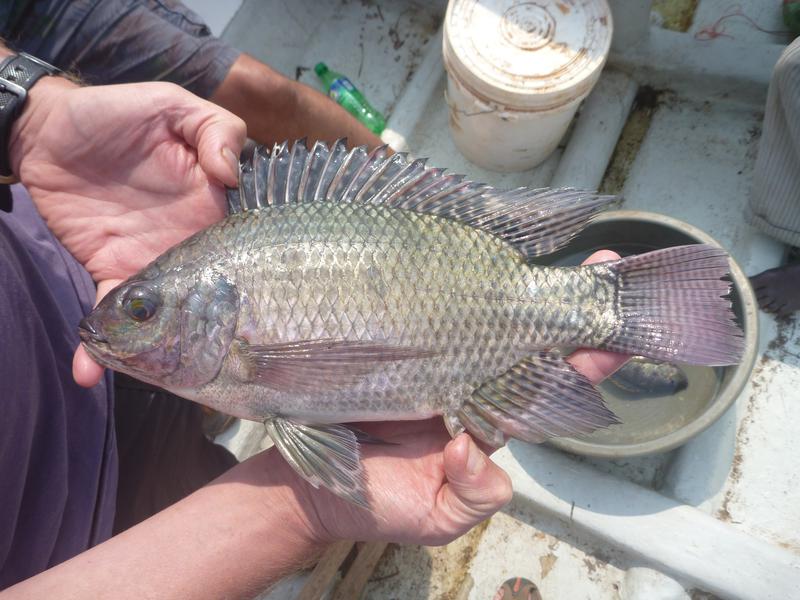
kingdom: Animalia
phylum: Chordata
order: Perciformes
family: Cichlidae
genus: Oreochromis
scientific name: Oreochromis niloticus
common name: Nile tilapia
